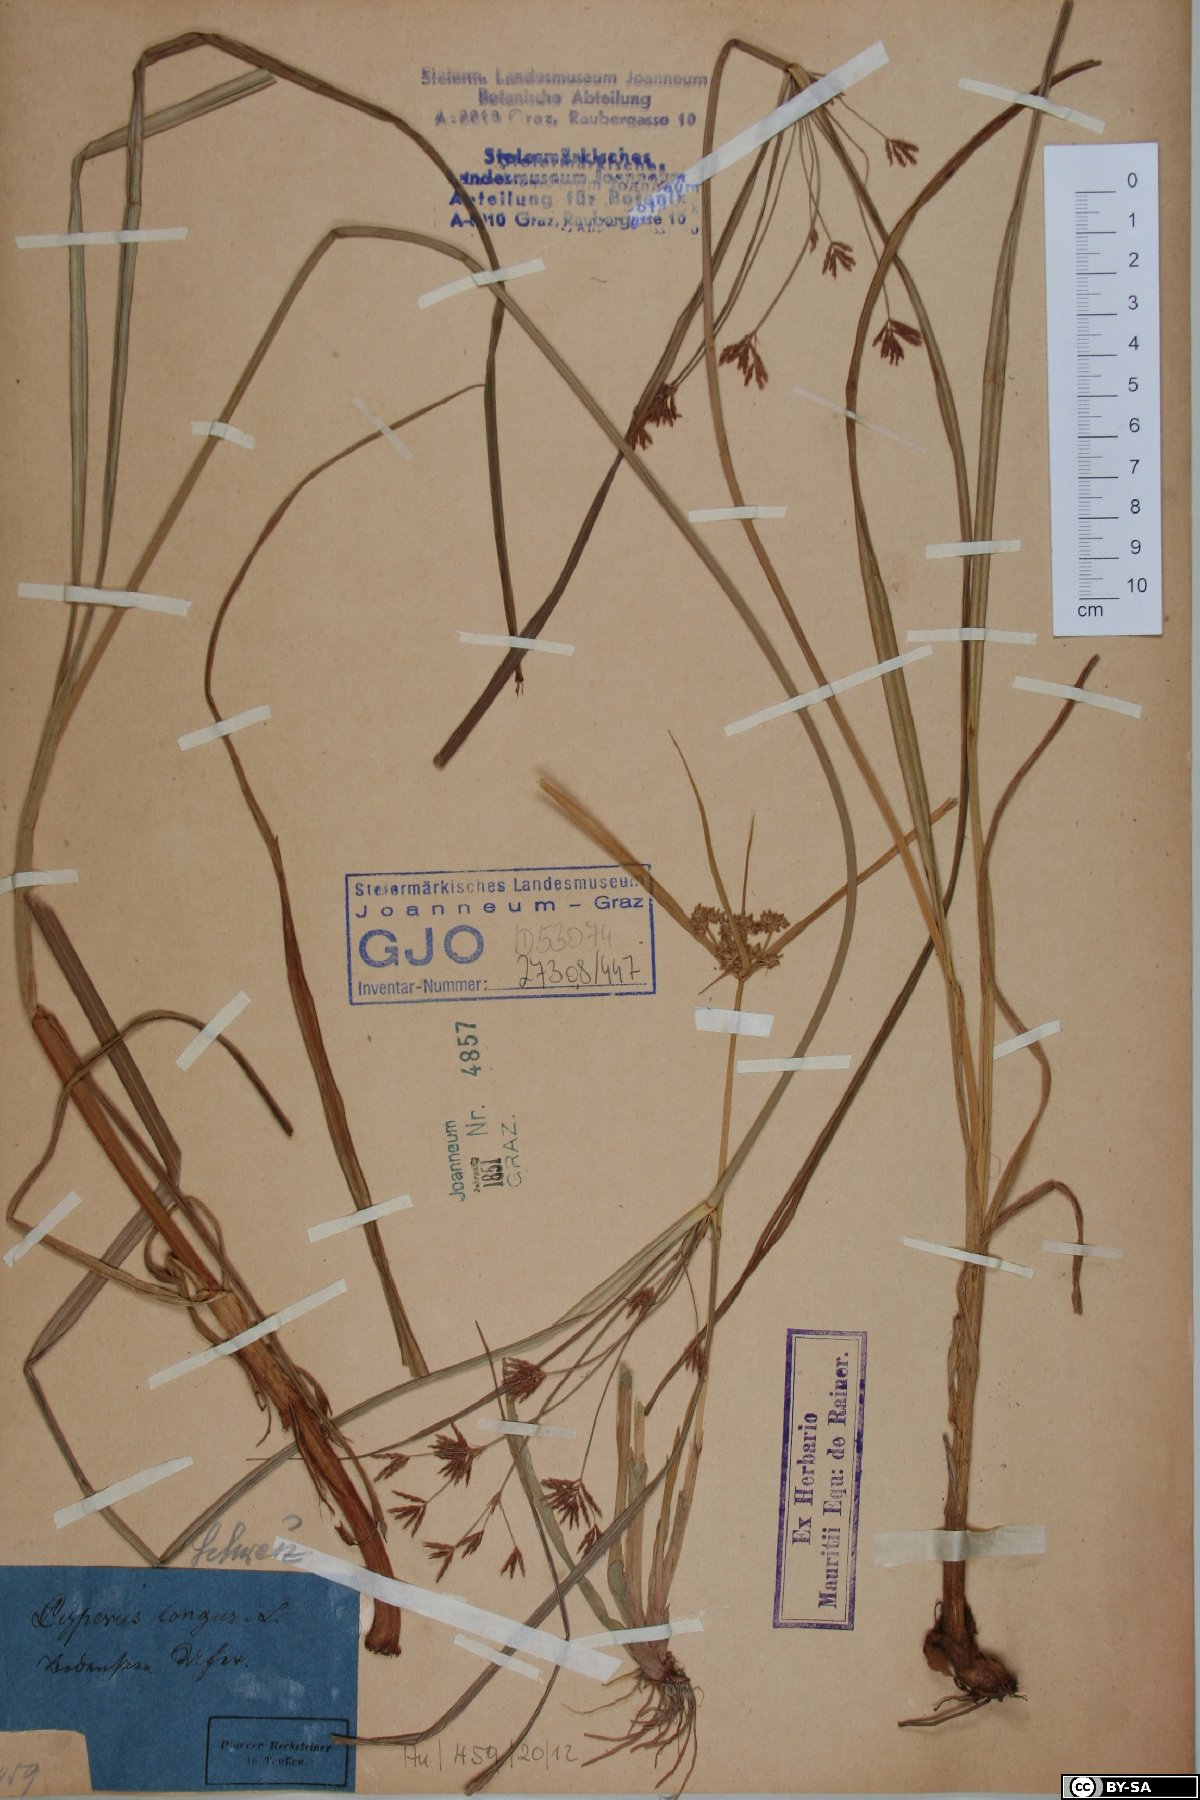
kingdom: Plantae
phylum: Tracheophyta
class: Liliopsida
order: Poales
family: Cyperaceae
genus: Cyperus
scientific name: Cyperus longus
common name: Galingale
